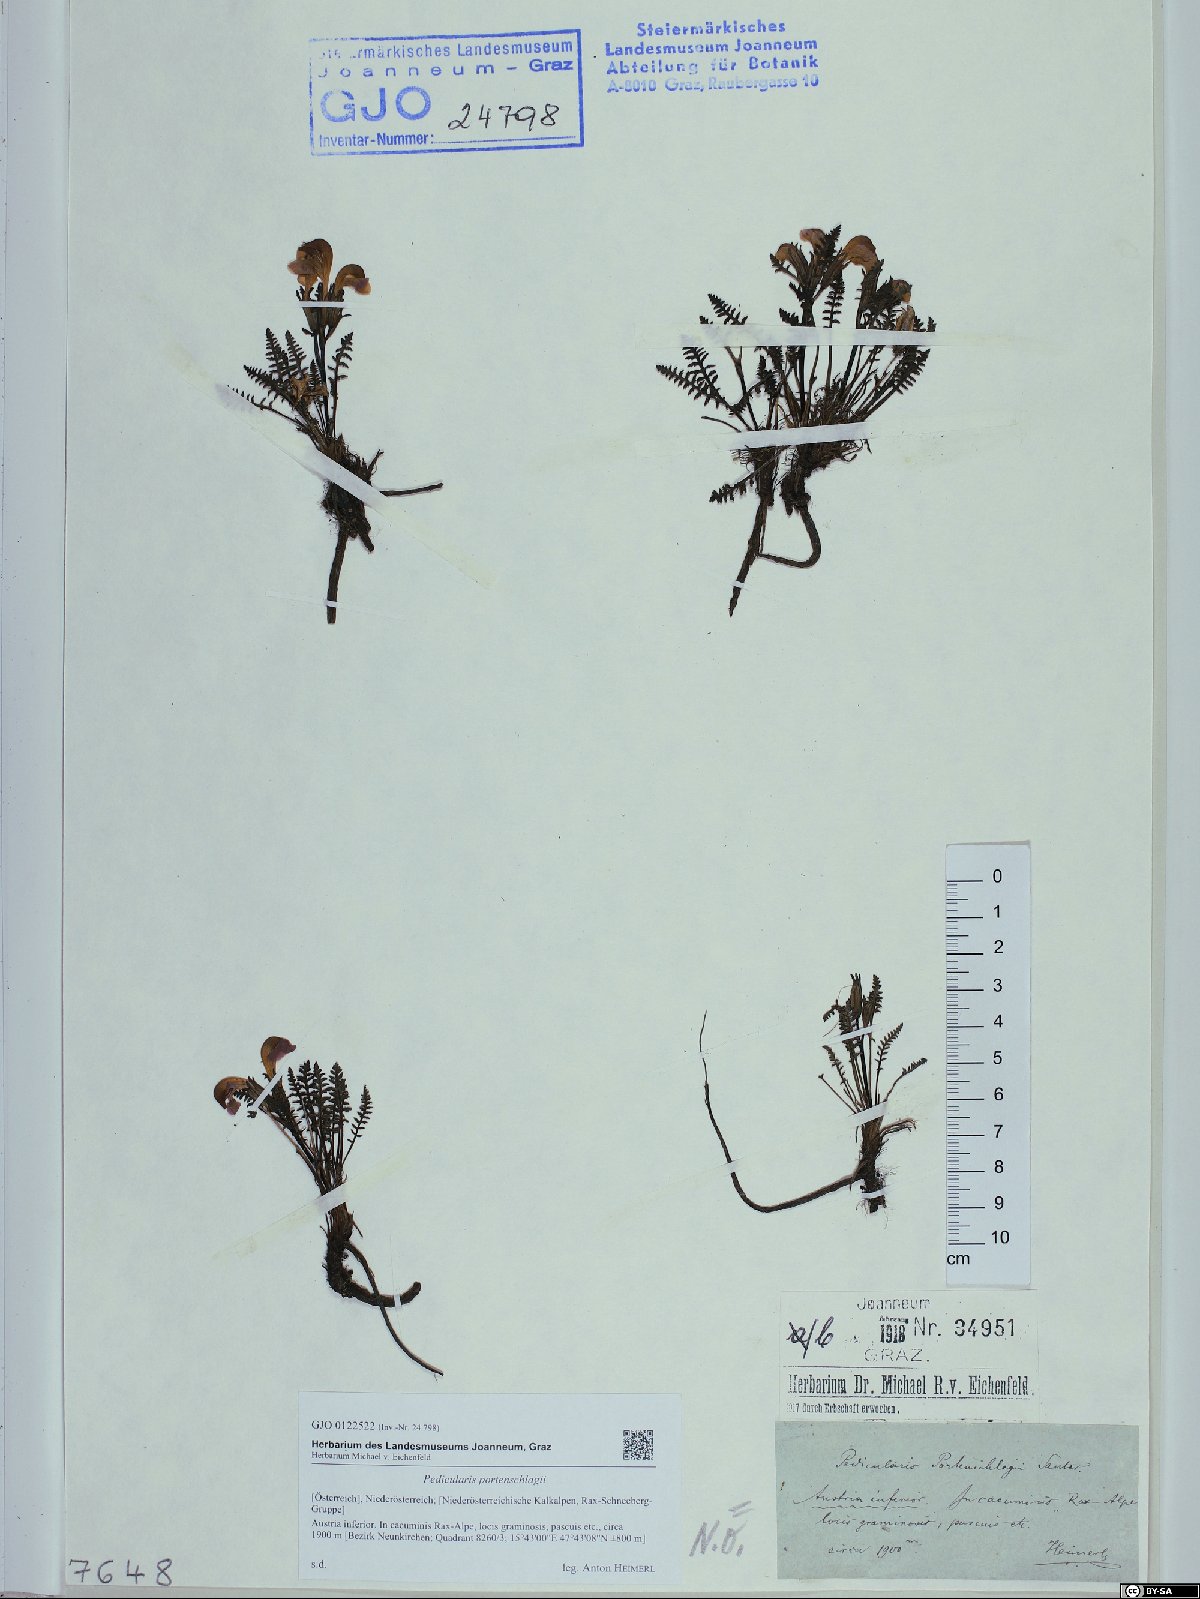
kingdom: Plantae
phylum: Tracheophyta
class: Magnoliopsida
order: Lamiales
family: Orobanchaceae
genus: Pedicularis
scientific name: Pedicularis portenschlagii
